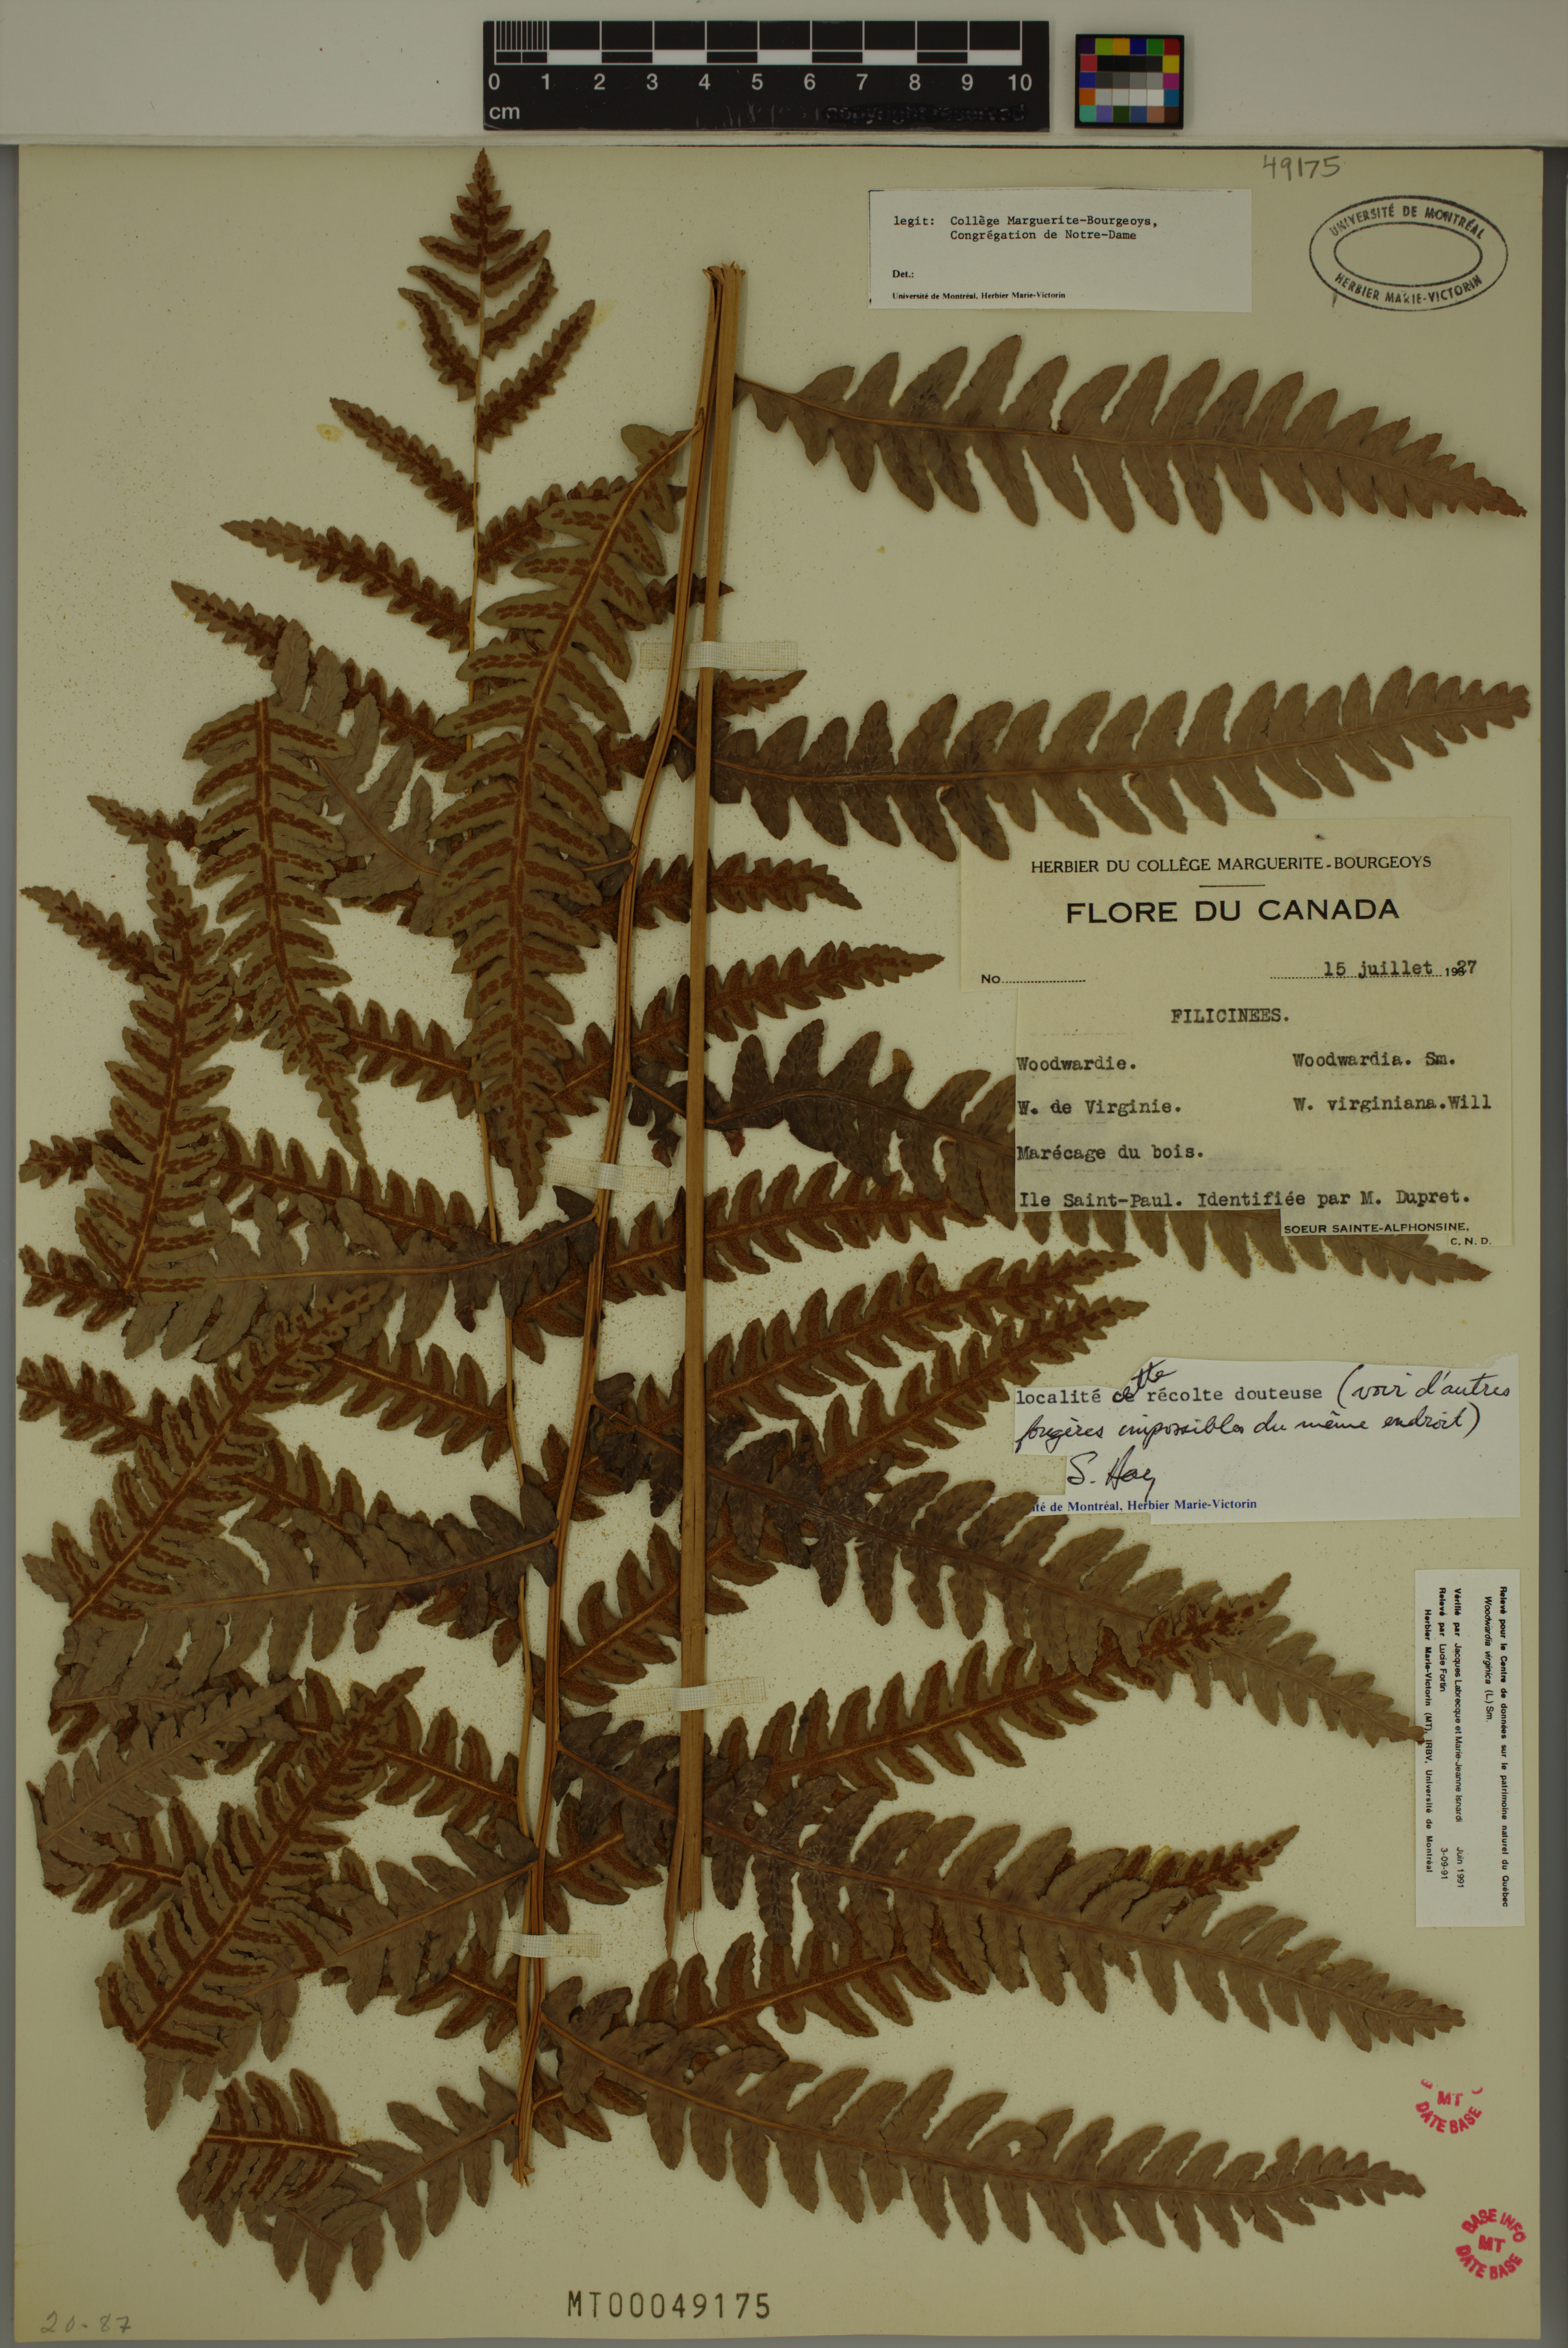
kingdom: Plantae
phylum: Tracheophyta
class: Polypodiopsida
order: Polypodiales
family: Blechnaceae
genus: Anchistea
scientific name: Anchistea virginica
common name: Virginia chain fern
